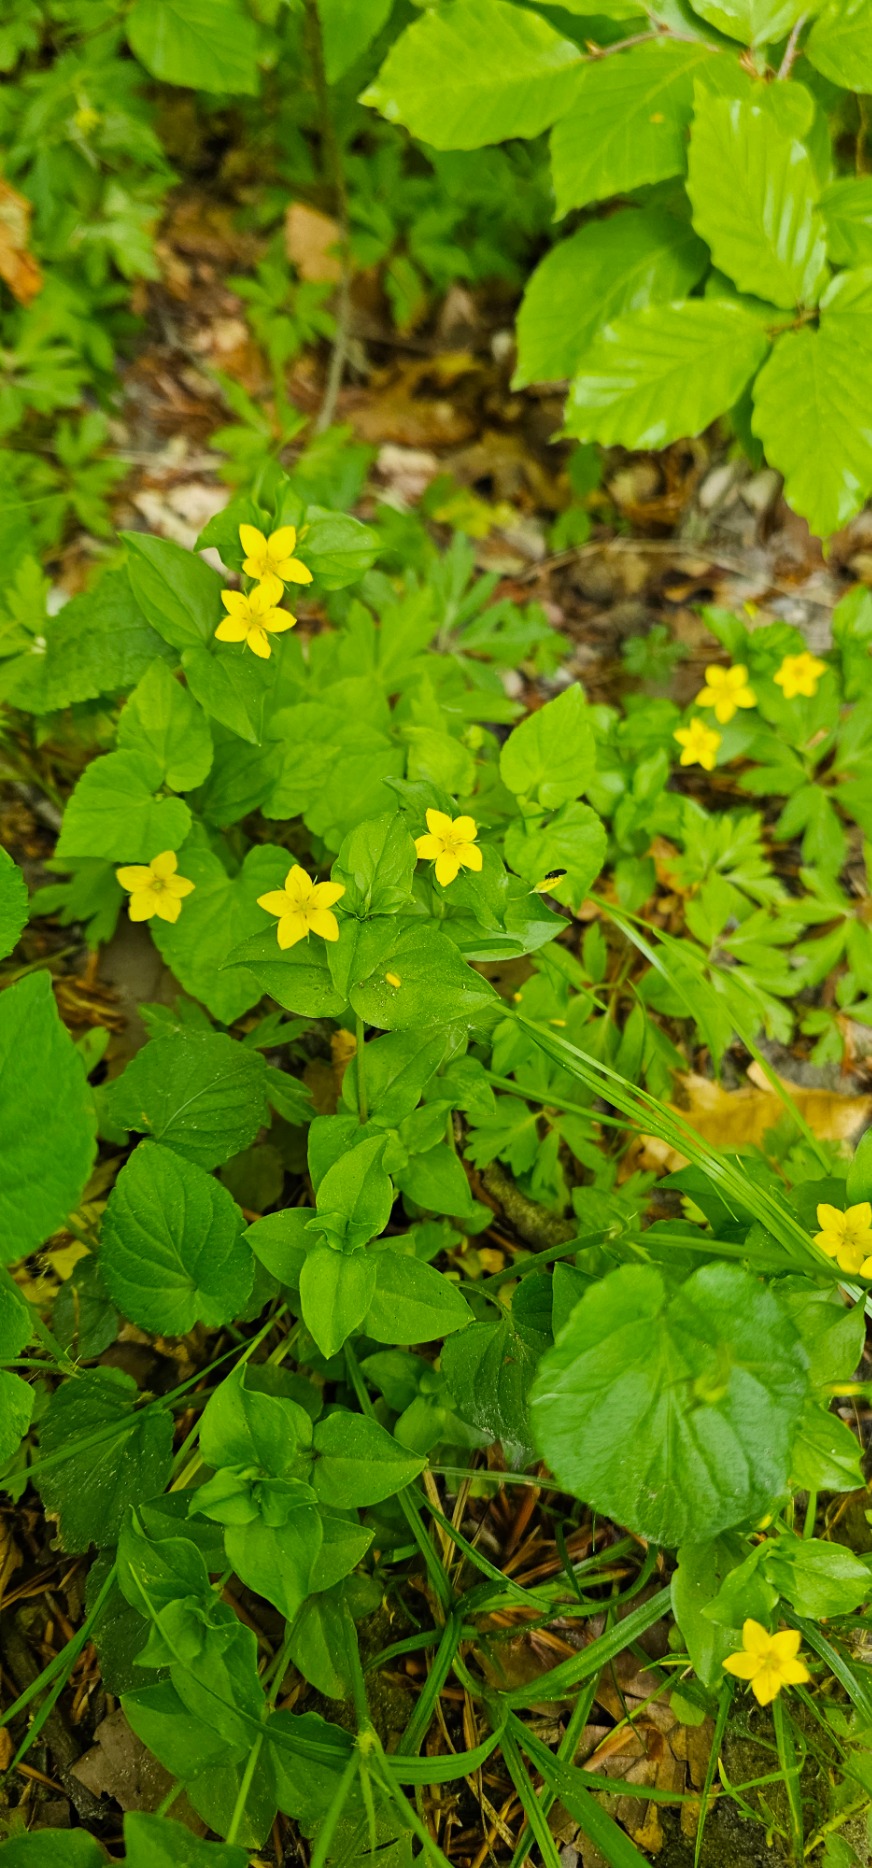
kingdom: Plantae
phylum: Tracheophyta
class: Magnoliopsida
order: Ericales
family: Primulaceae
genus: Lysimachia
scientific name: Lysimachia nemorum
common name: Lund-fredløs
